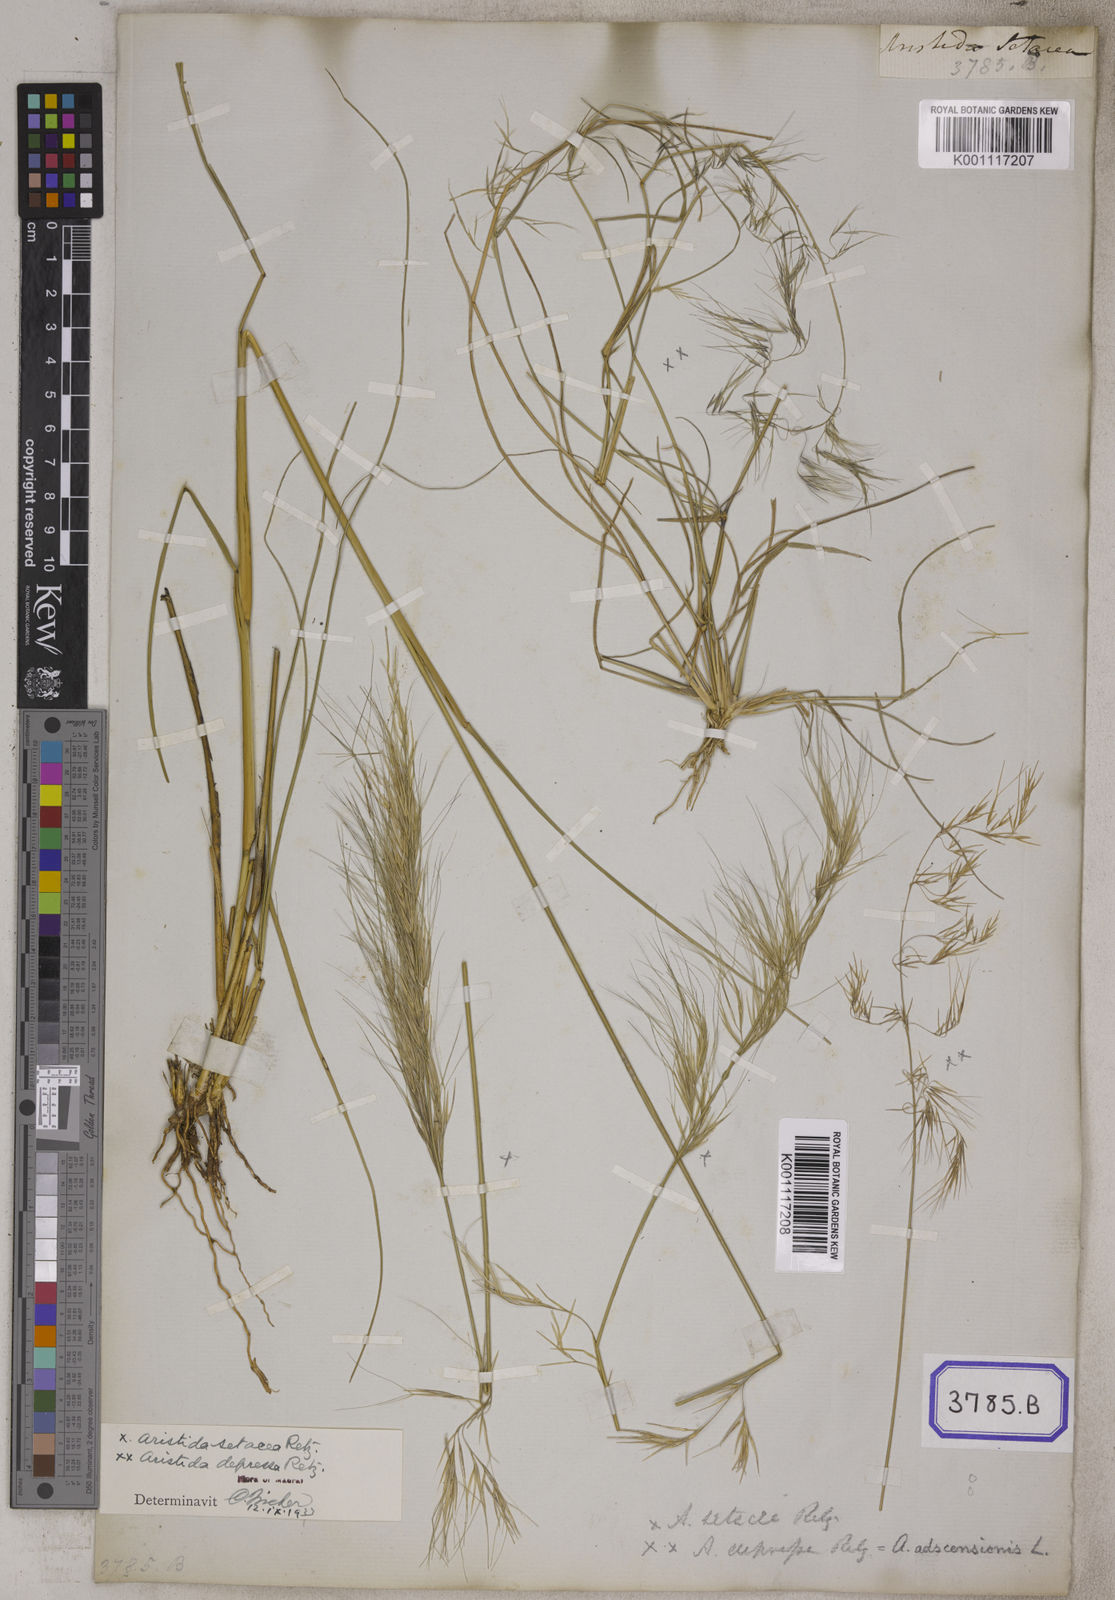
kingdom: Plantae
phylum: Tracheophyta
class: Liliopsida
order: Poales
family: Poaceae
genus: Aristida
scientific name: Aristida setacea
